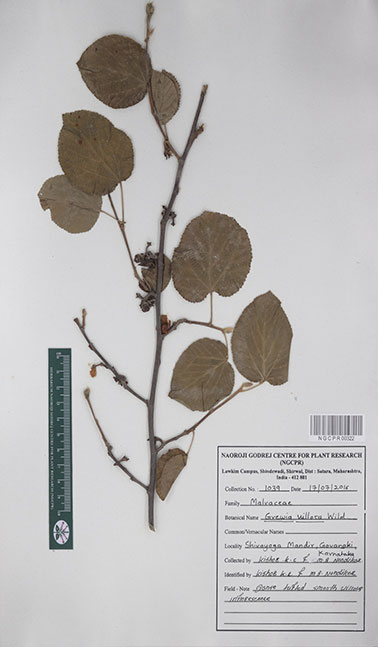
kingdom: Plantae
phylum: Tracheophyta
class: Magnoliopsida
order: Malvales
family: Malvaceae
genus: Grewia
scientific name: Grewia villosa
